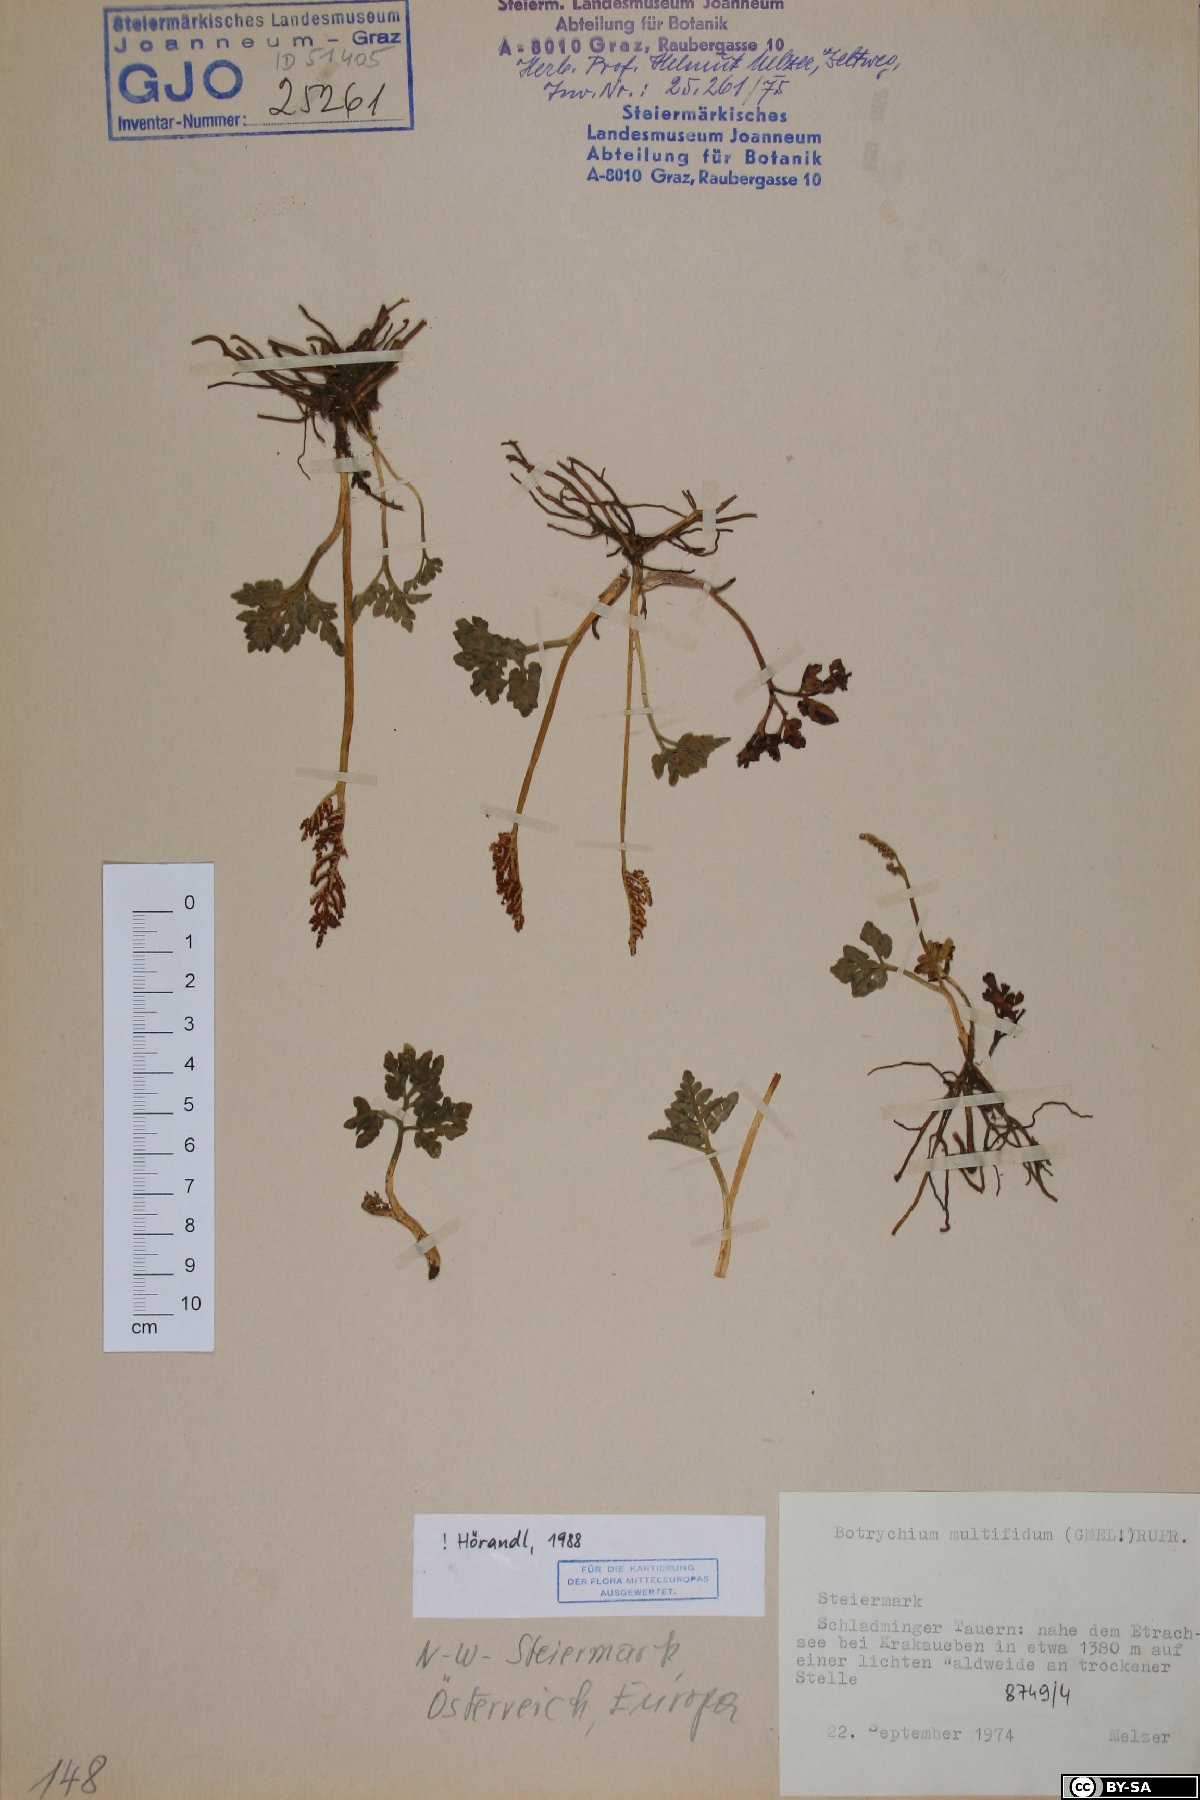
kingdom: Plantae
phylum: Tracheophyta
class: Polypodiopsida
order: Ophioglossales
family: Ophioglossaceae
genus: Sceptridium
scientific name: Sceptridium multifidum
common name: Leathery grape fern
